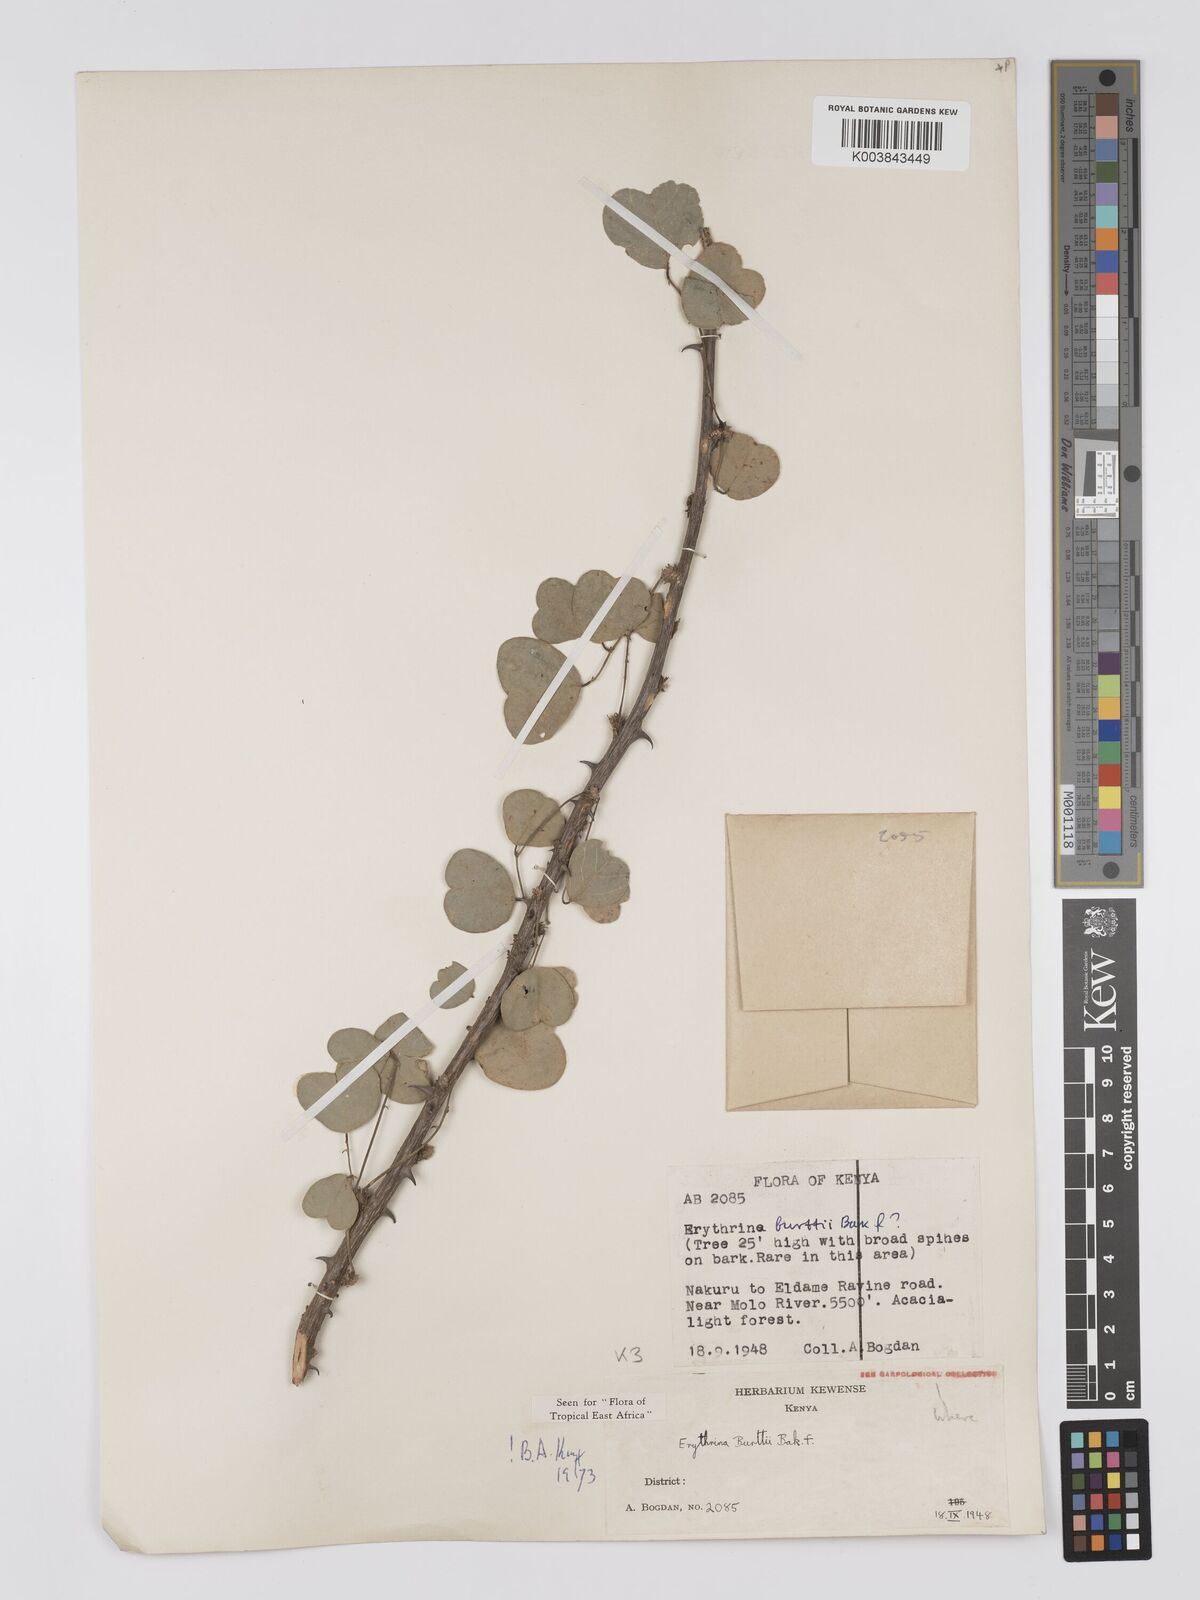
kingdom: Plantae
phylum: Tracheophyta
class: Magnoliopsida
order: Fabales
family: Fabaceae
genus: Erythrina
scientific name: Erythrina burttii
